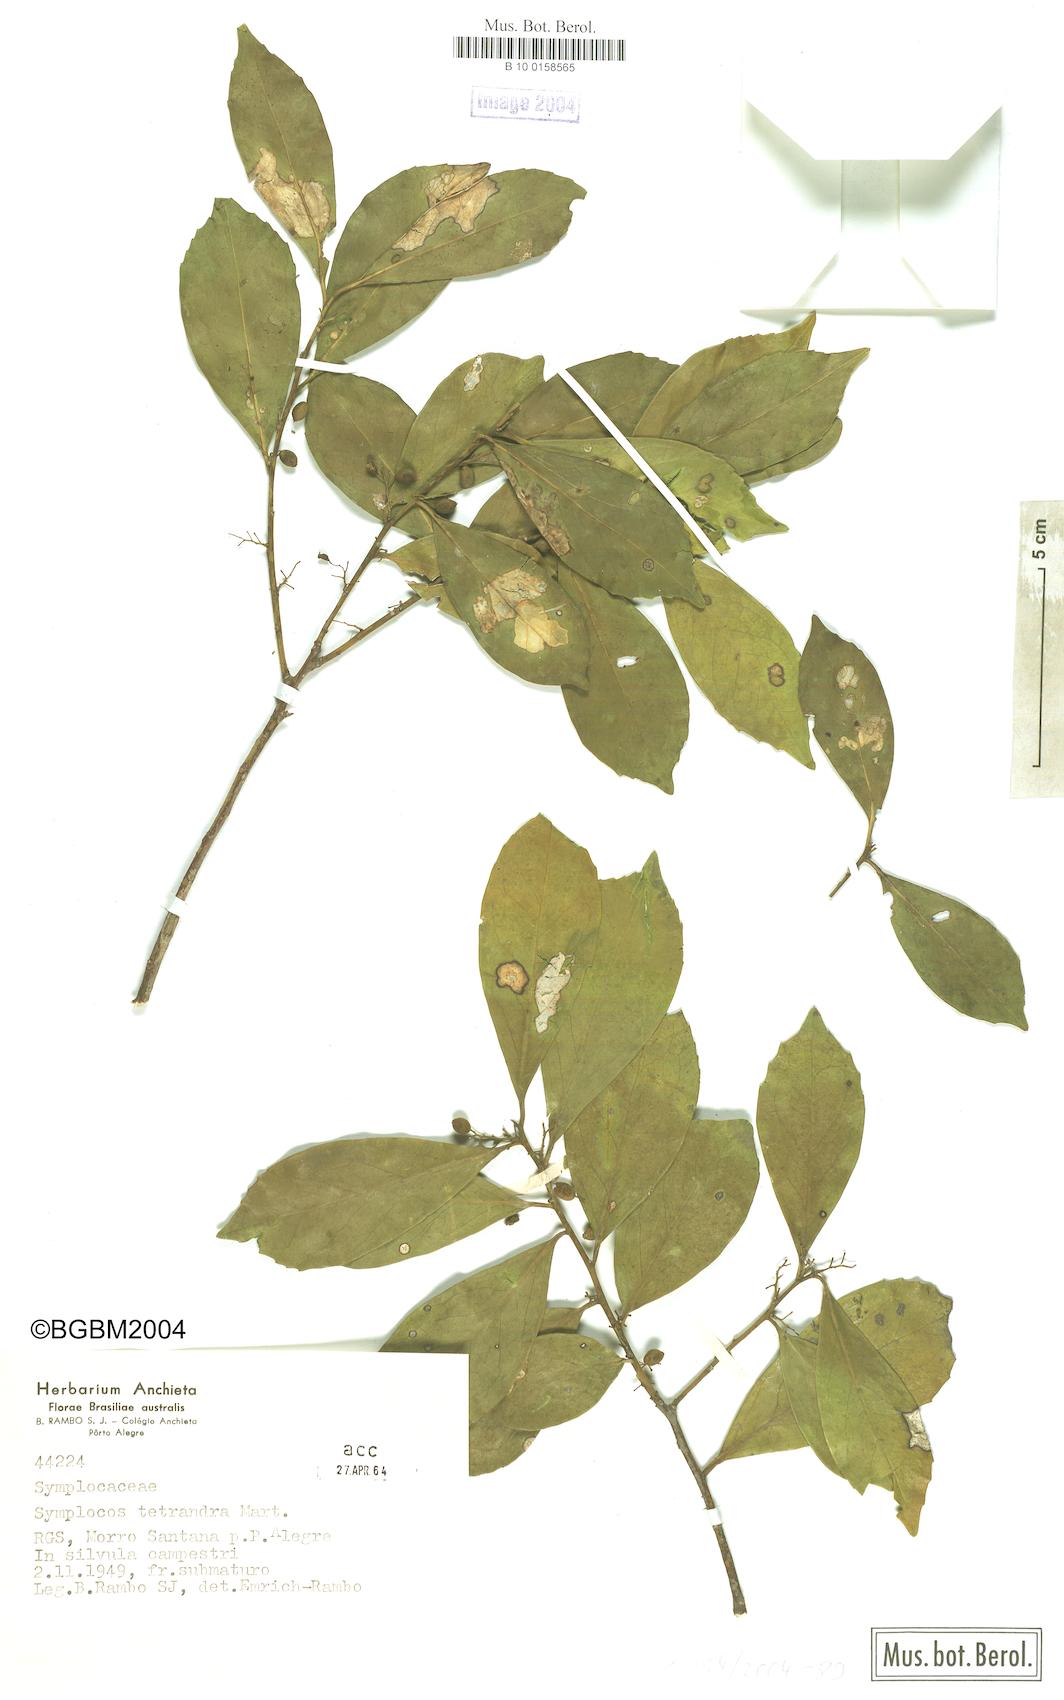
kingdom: Plantae
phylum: Tracheophyta
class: Magnoliopsida
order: Ericales
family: Symplocaceae
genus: Symplocos
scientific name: Symplocos tetrandra
